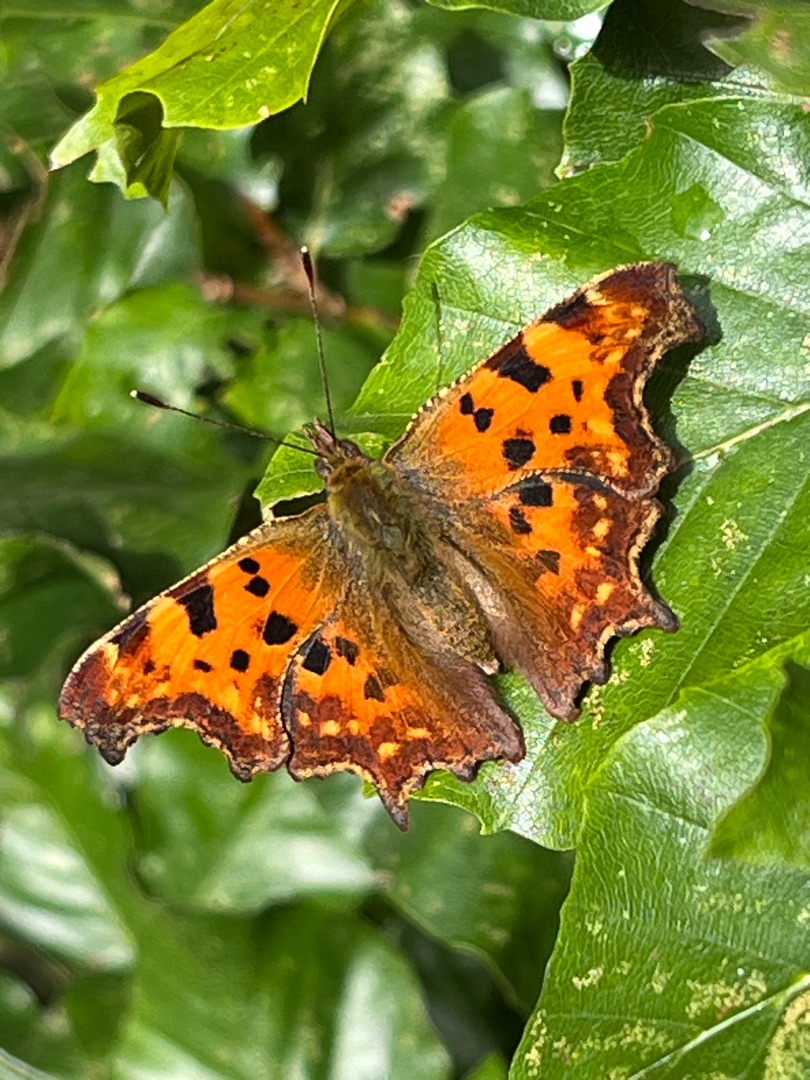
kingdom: Animalia
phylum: Arthropoda
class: Insecta
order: Lepidoptera
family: Nymphalidae
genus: Polygonia
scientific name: Polygonia c-album
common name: Det hvide C
